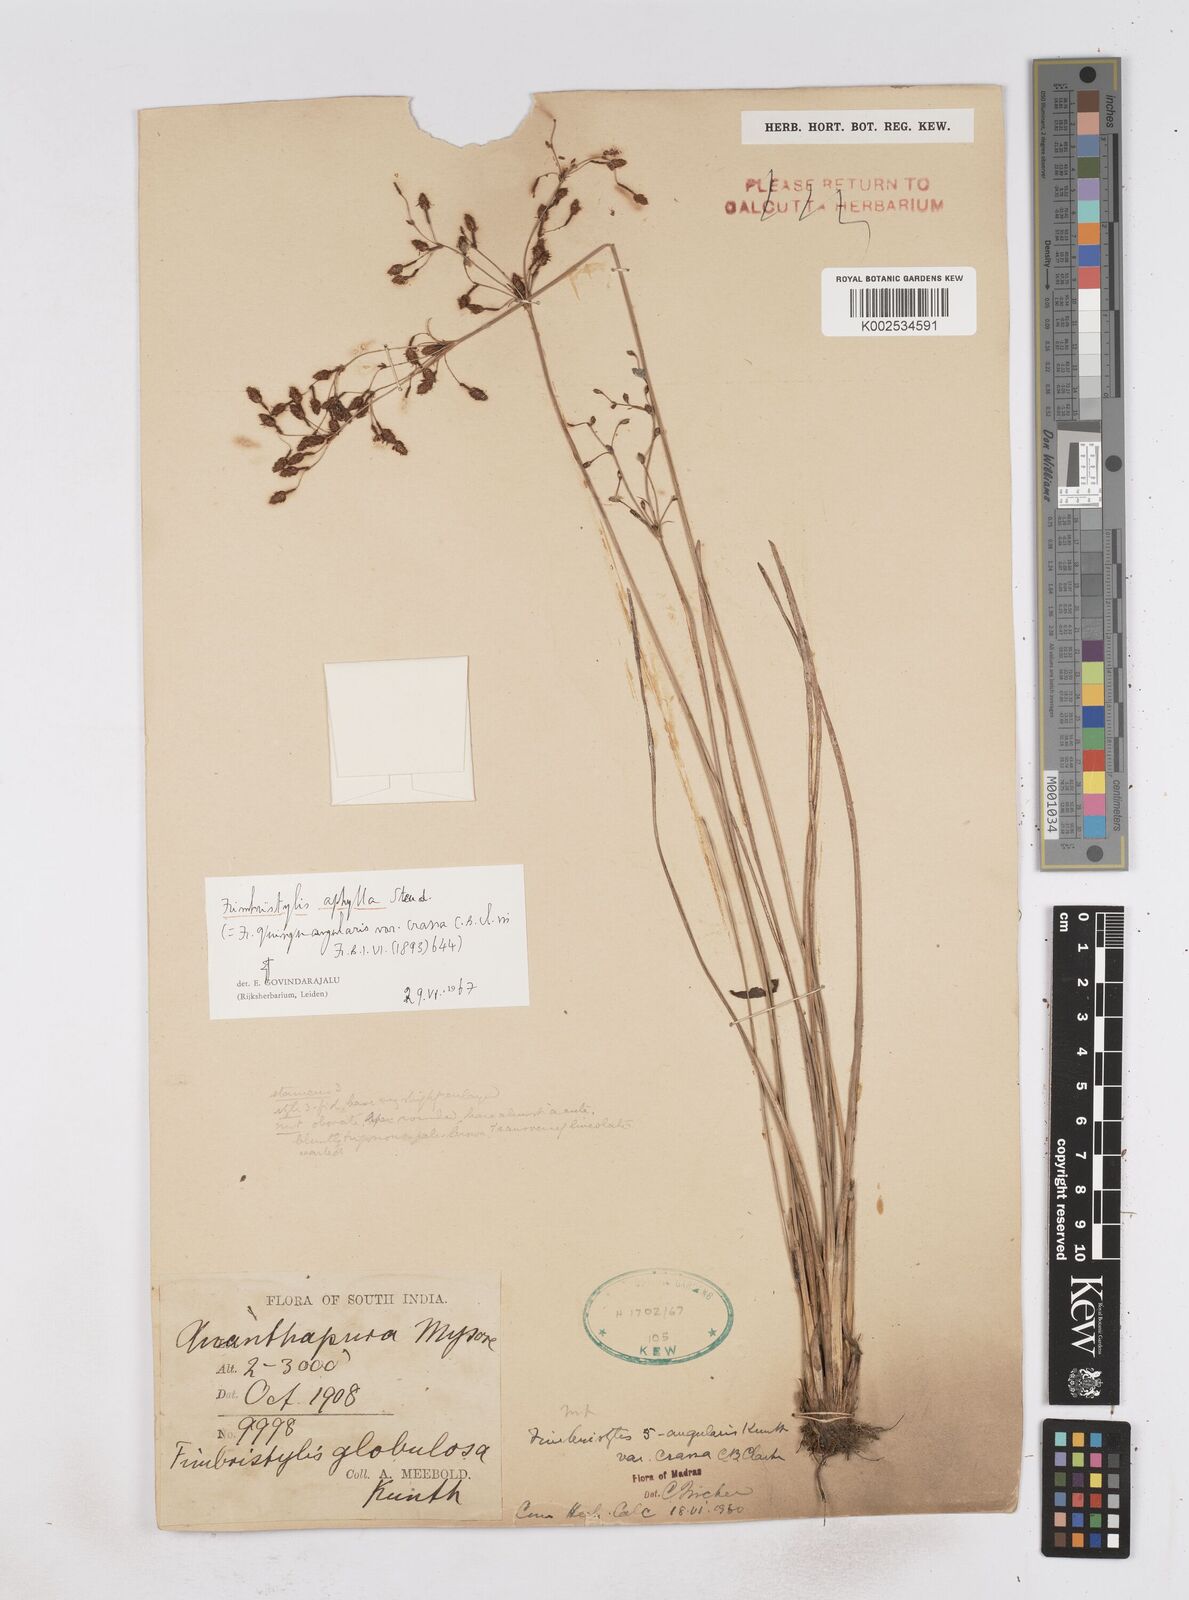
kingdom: Plantae
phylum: Tracheophyta
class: Liliopsida
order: Poales
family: Cyperaceae
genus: Fimbristylis
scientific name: Fimbristylis aphylla
